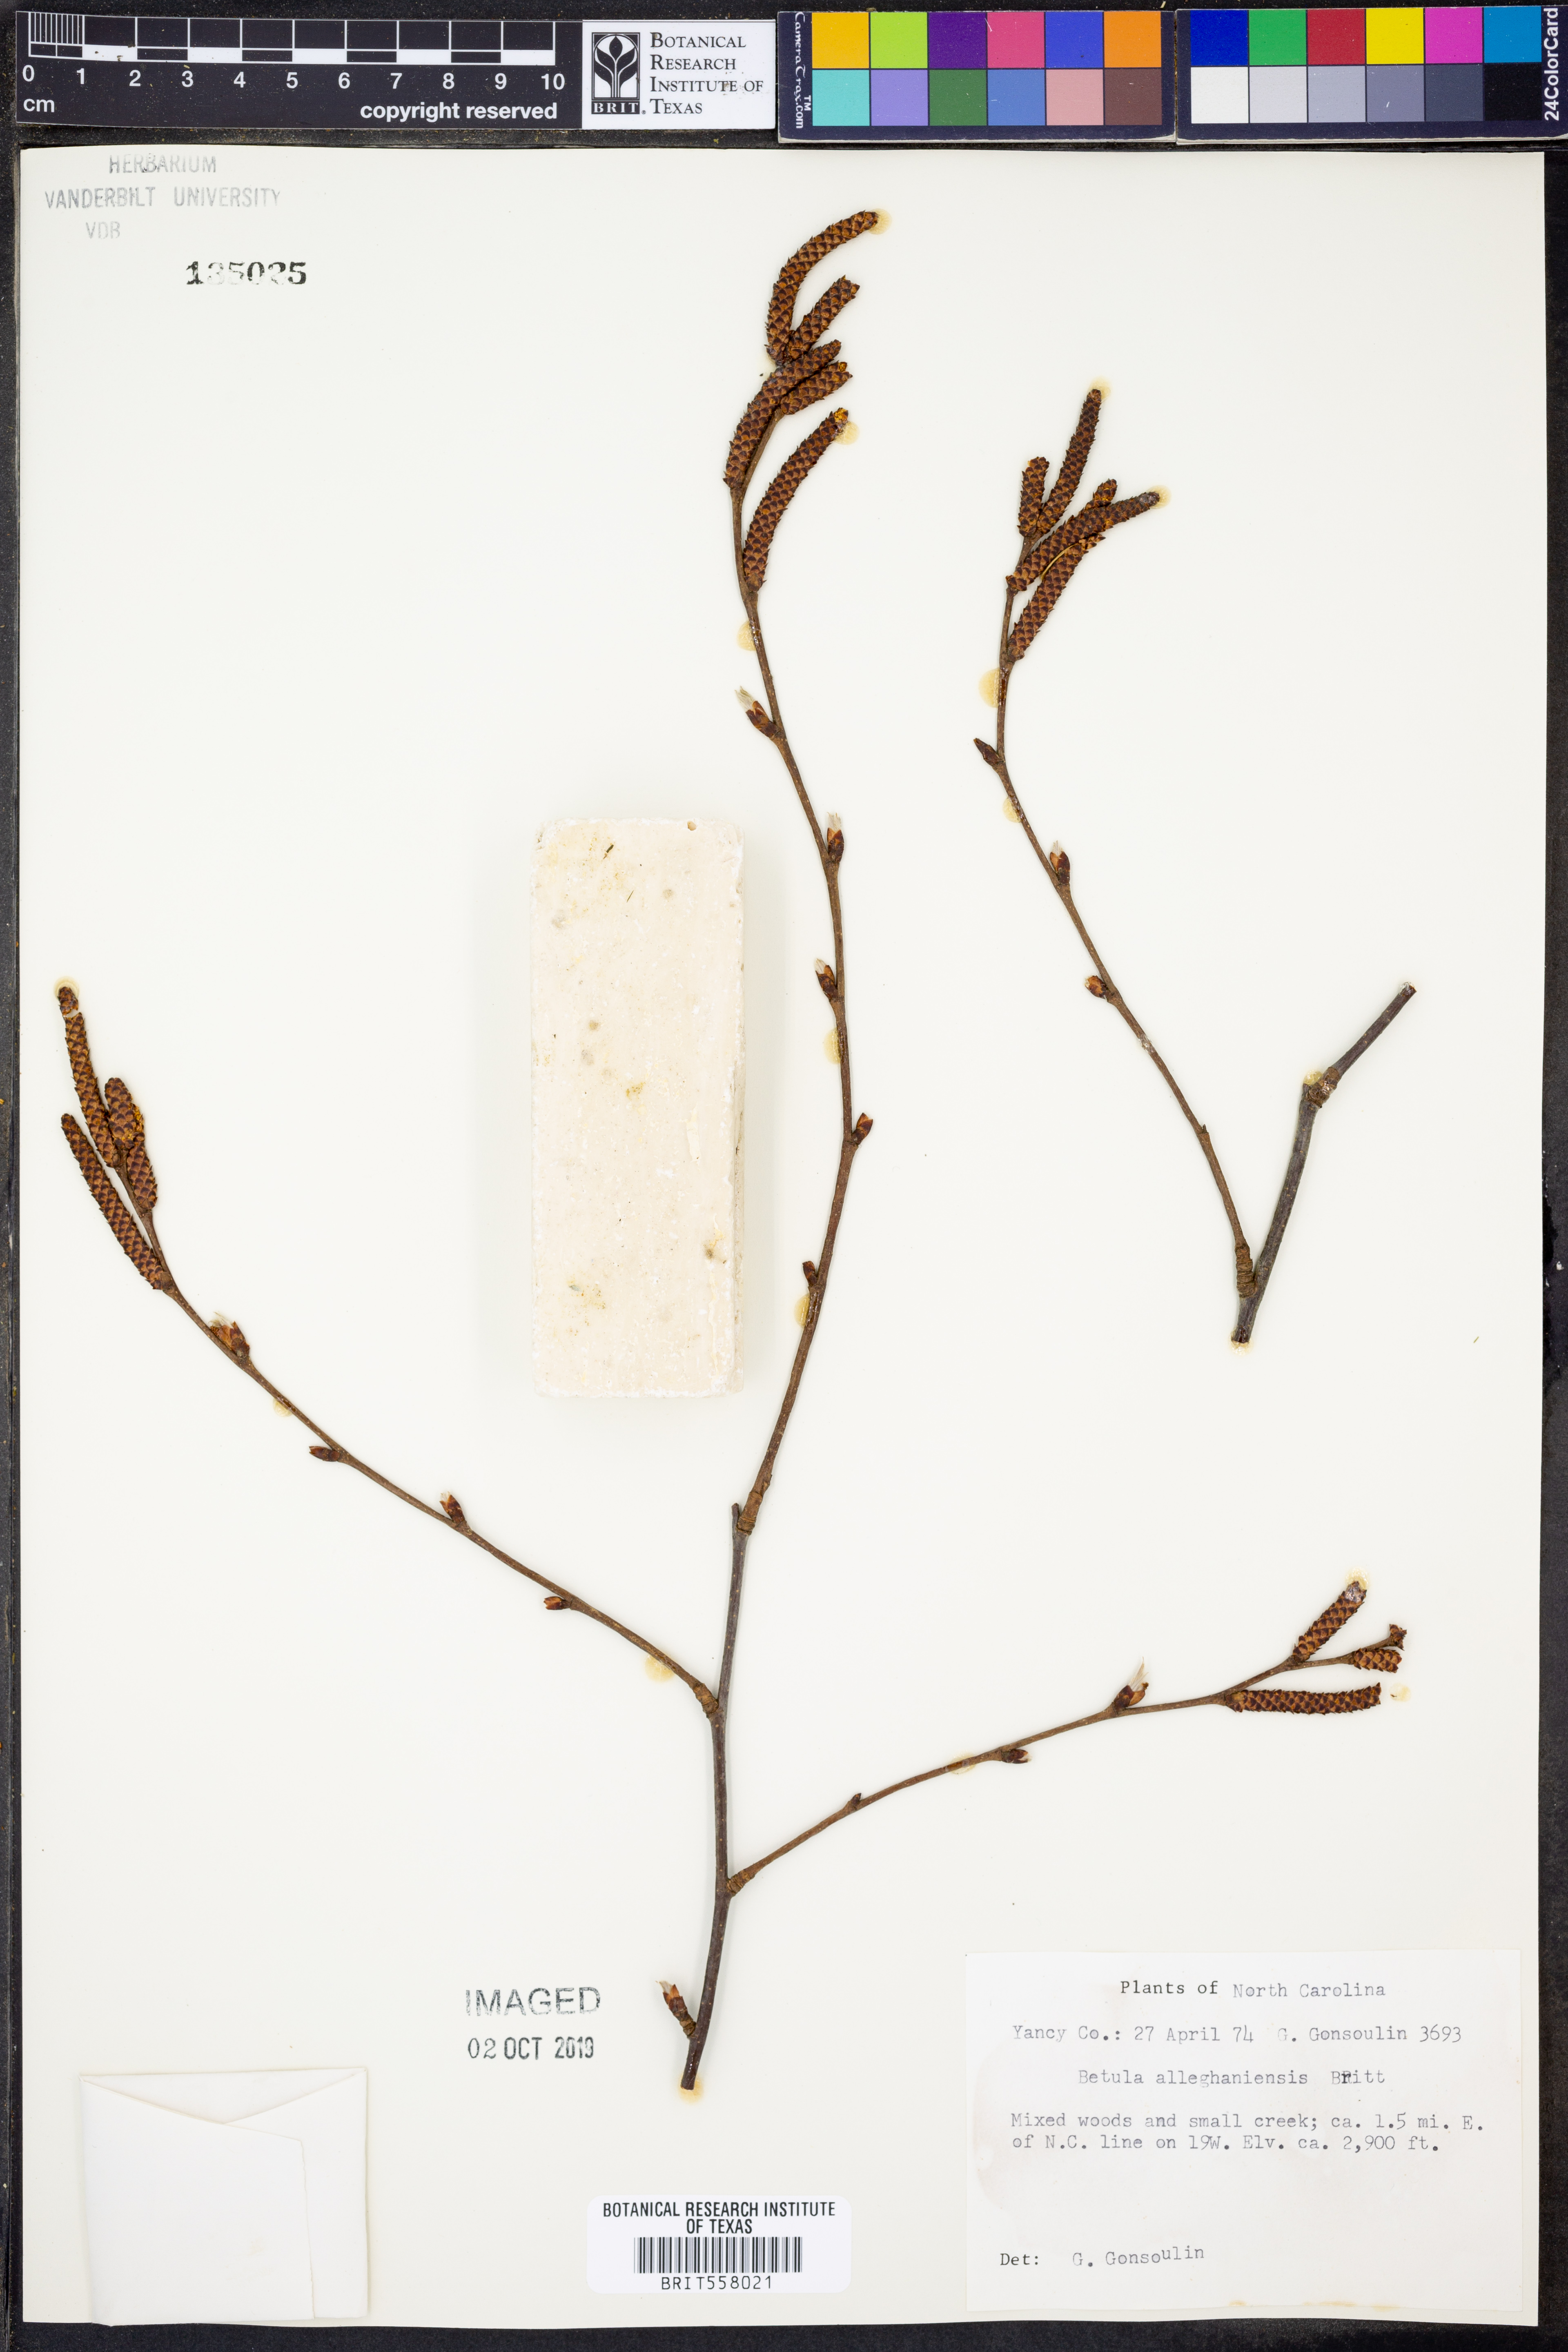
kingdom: Plantae
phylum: Tracheophyta
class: Magnoliopsida
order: Fagales
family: Betulaceae
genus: Betula
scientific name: Betula alleghaniensis
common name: Yellow birch
